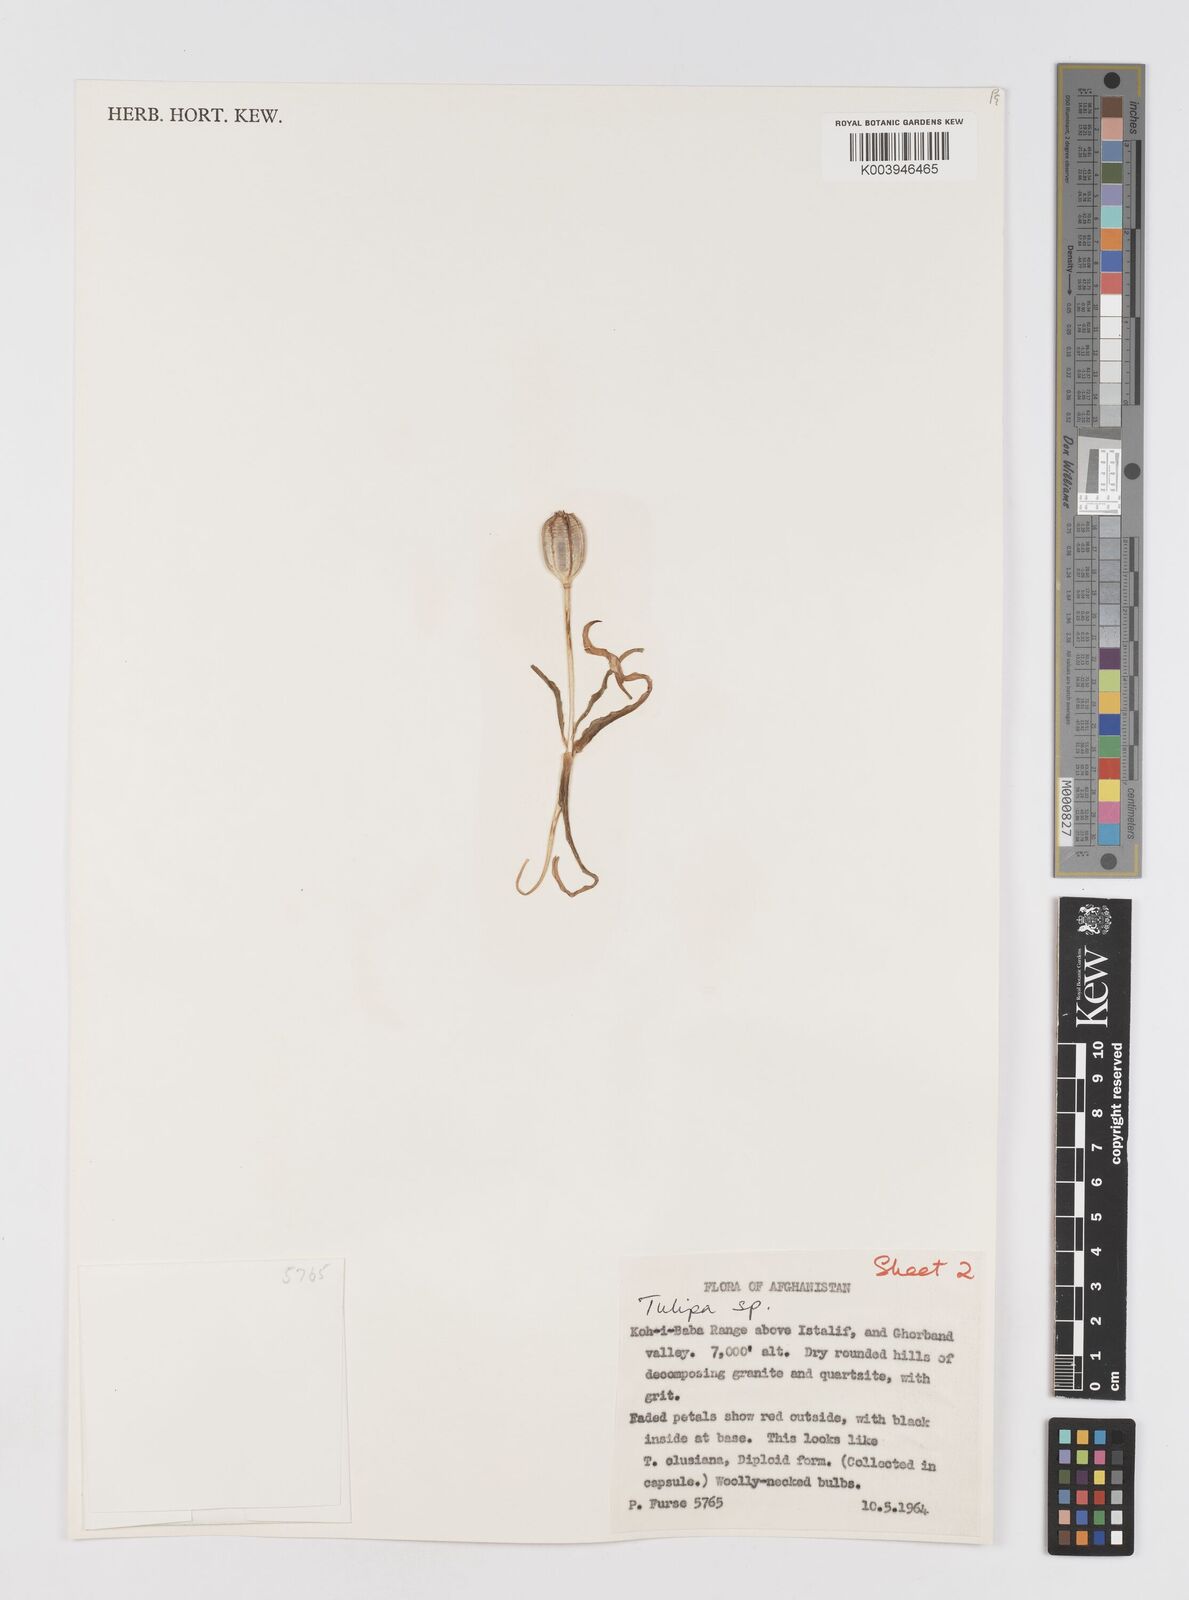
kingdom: Plantae
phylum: Tracheophyta
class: Liliopsida
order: Liliales
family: Liliaceae
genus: Tulipa
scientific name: Tulipa
